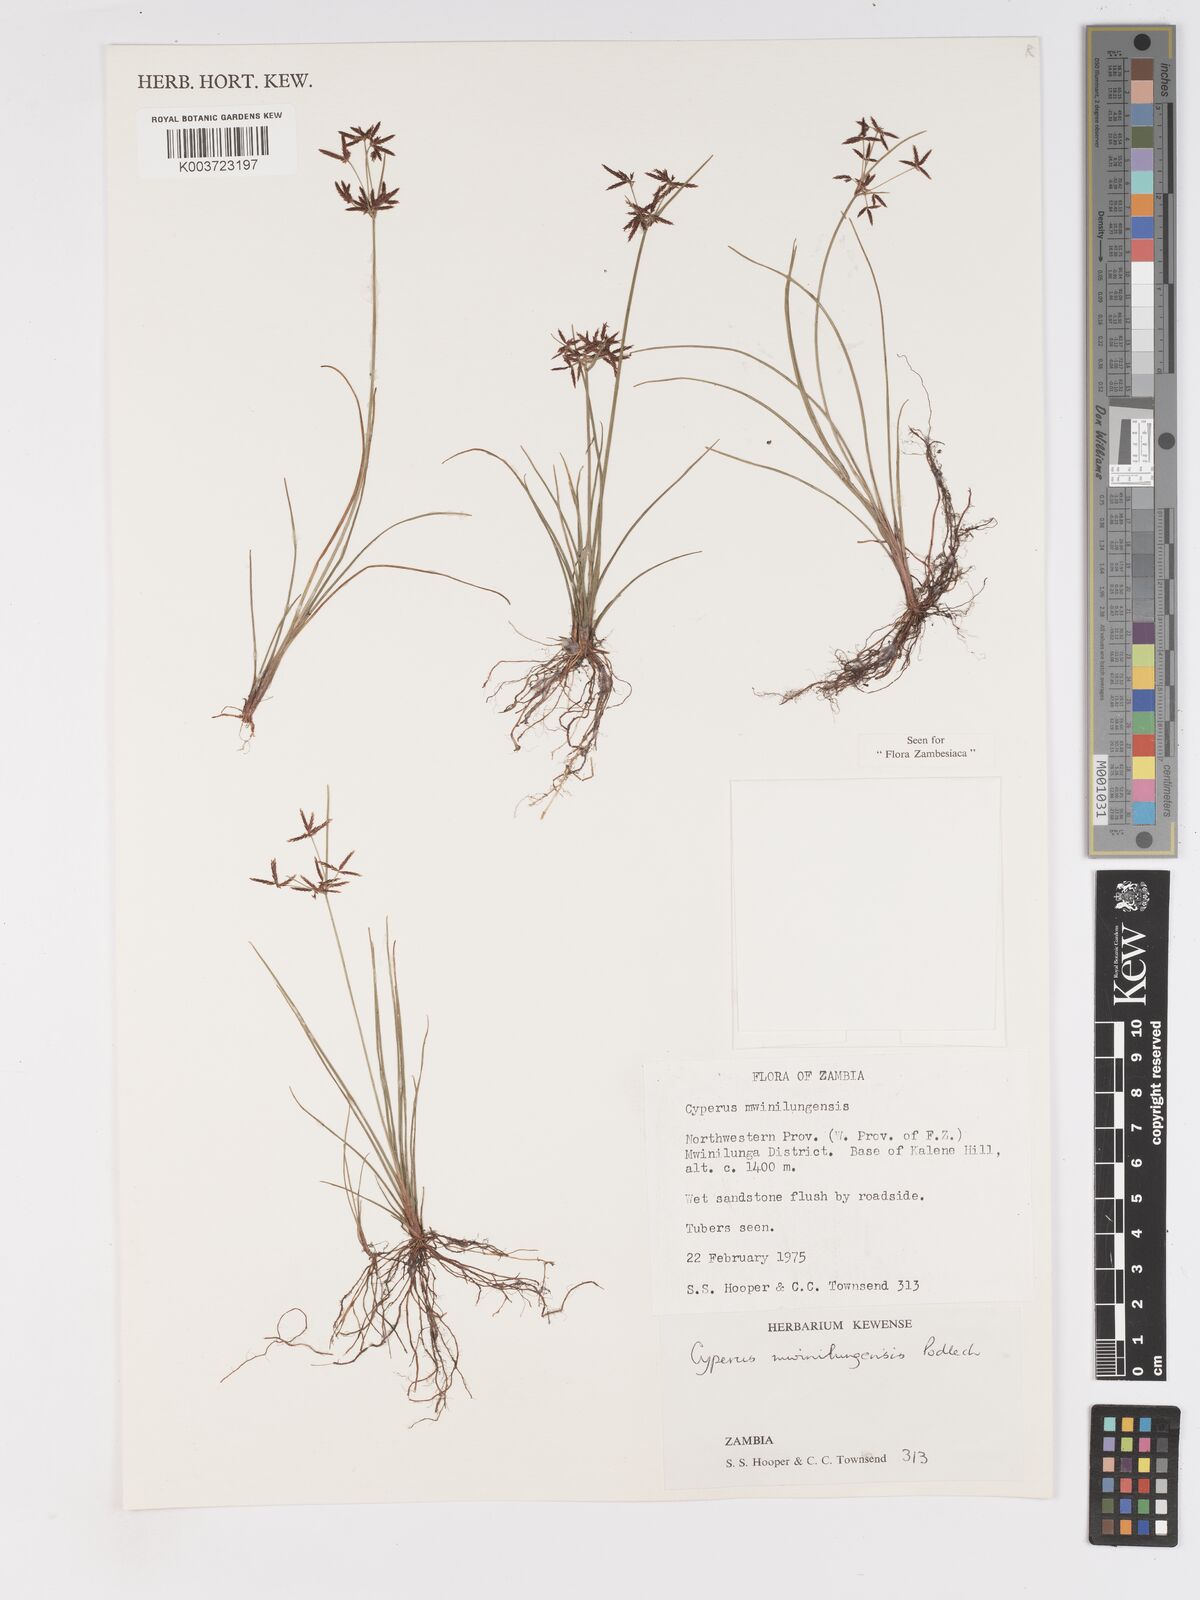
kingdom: Plantae
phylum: Tracheophyta
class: Liliopsida
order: Poales
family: Cyperaceae
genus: Cyperus
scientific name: Cyperus mwinilungensis
